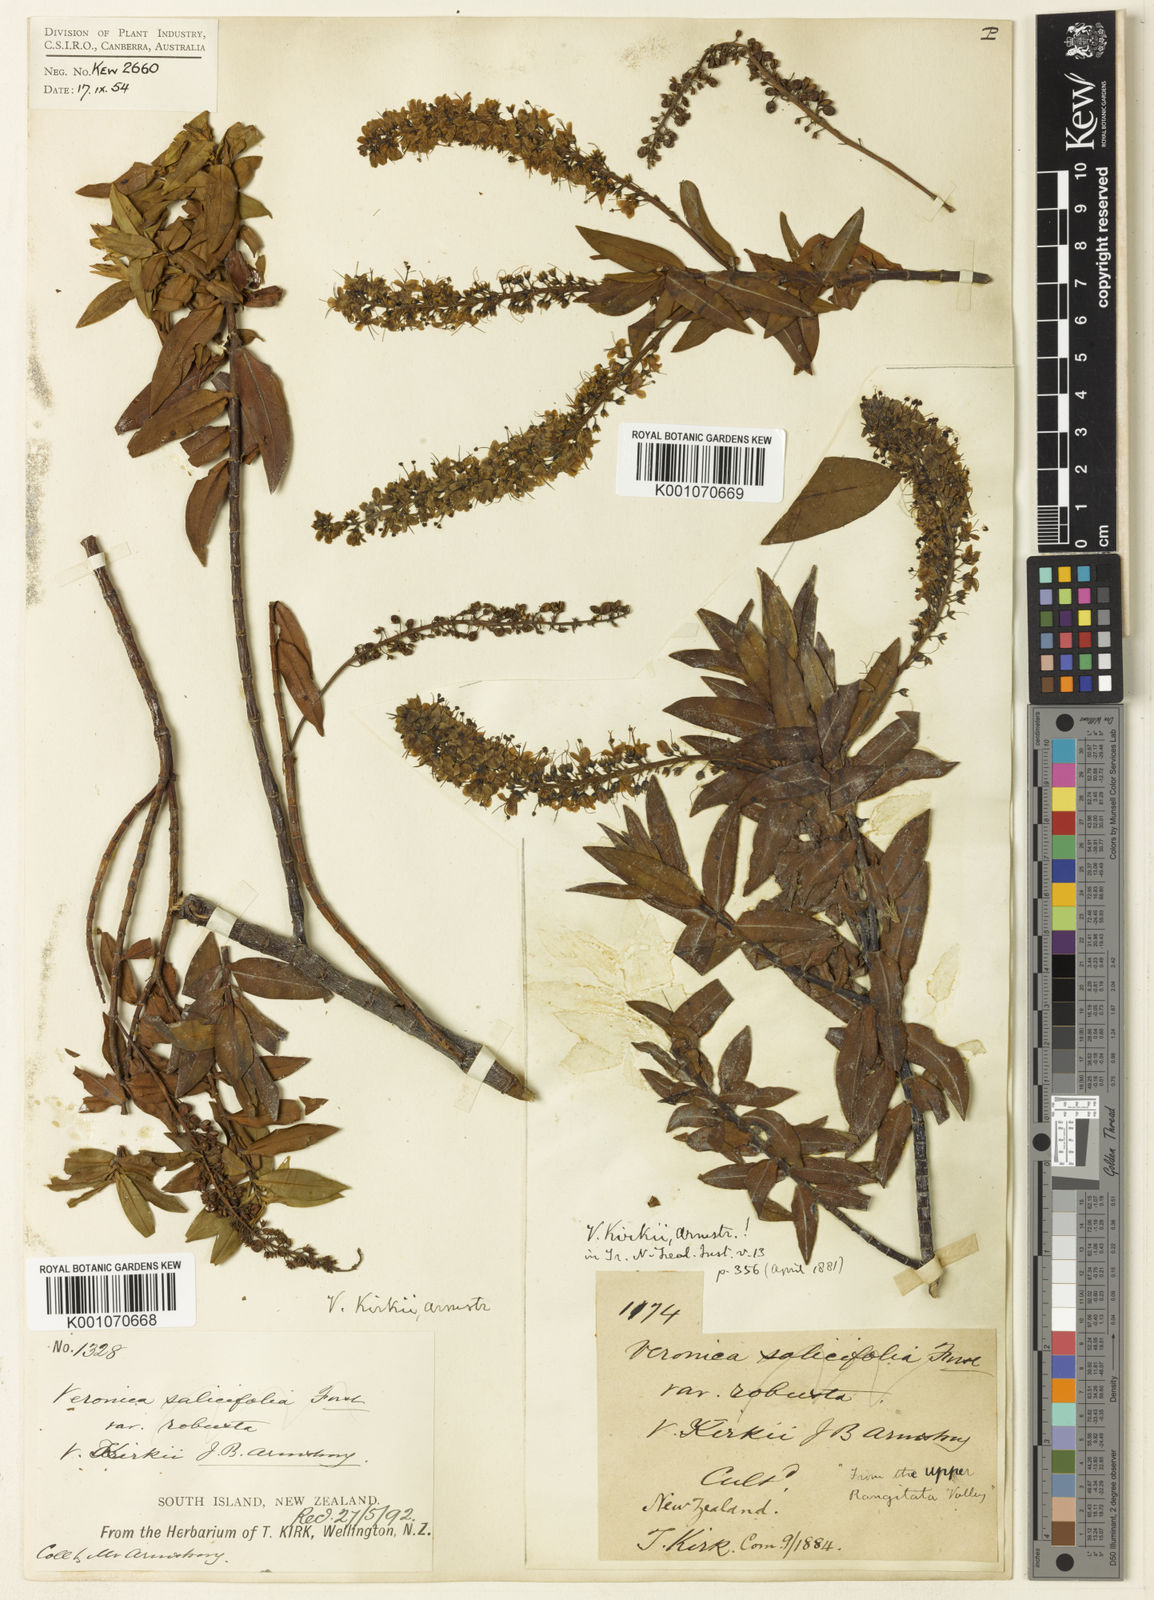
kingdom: Plantae
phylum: Tracheophyta
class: Magnoliopsida
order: Lamiales
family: Plantaginaceae
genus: Veronica
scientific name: Veronica kirkii
